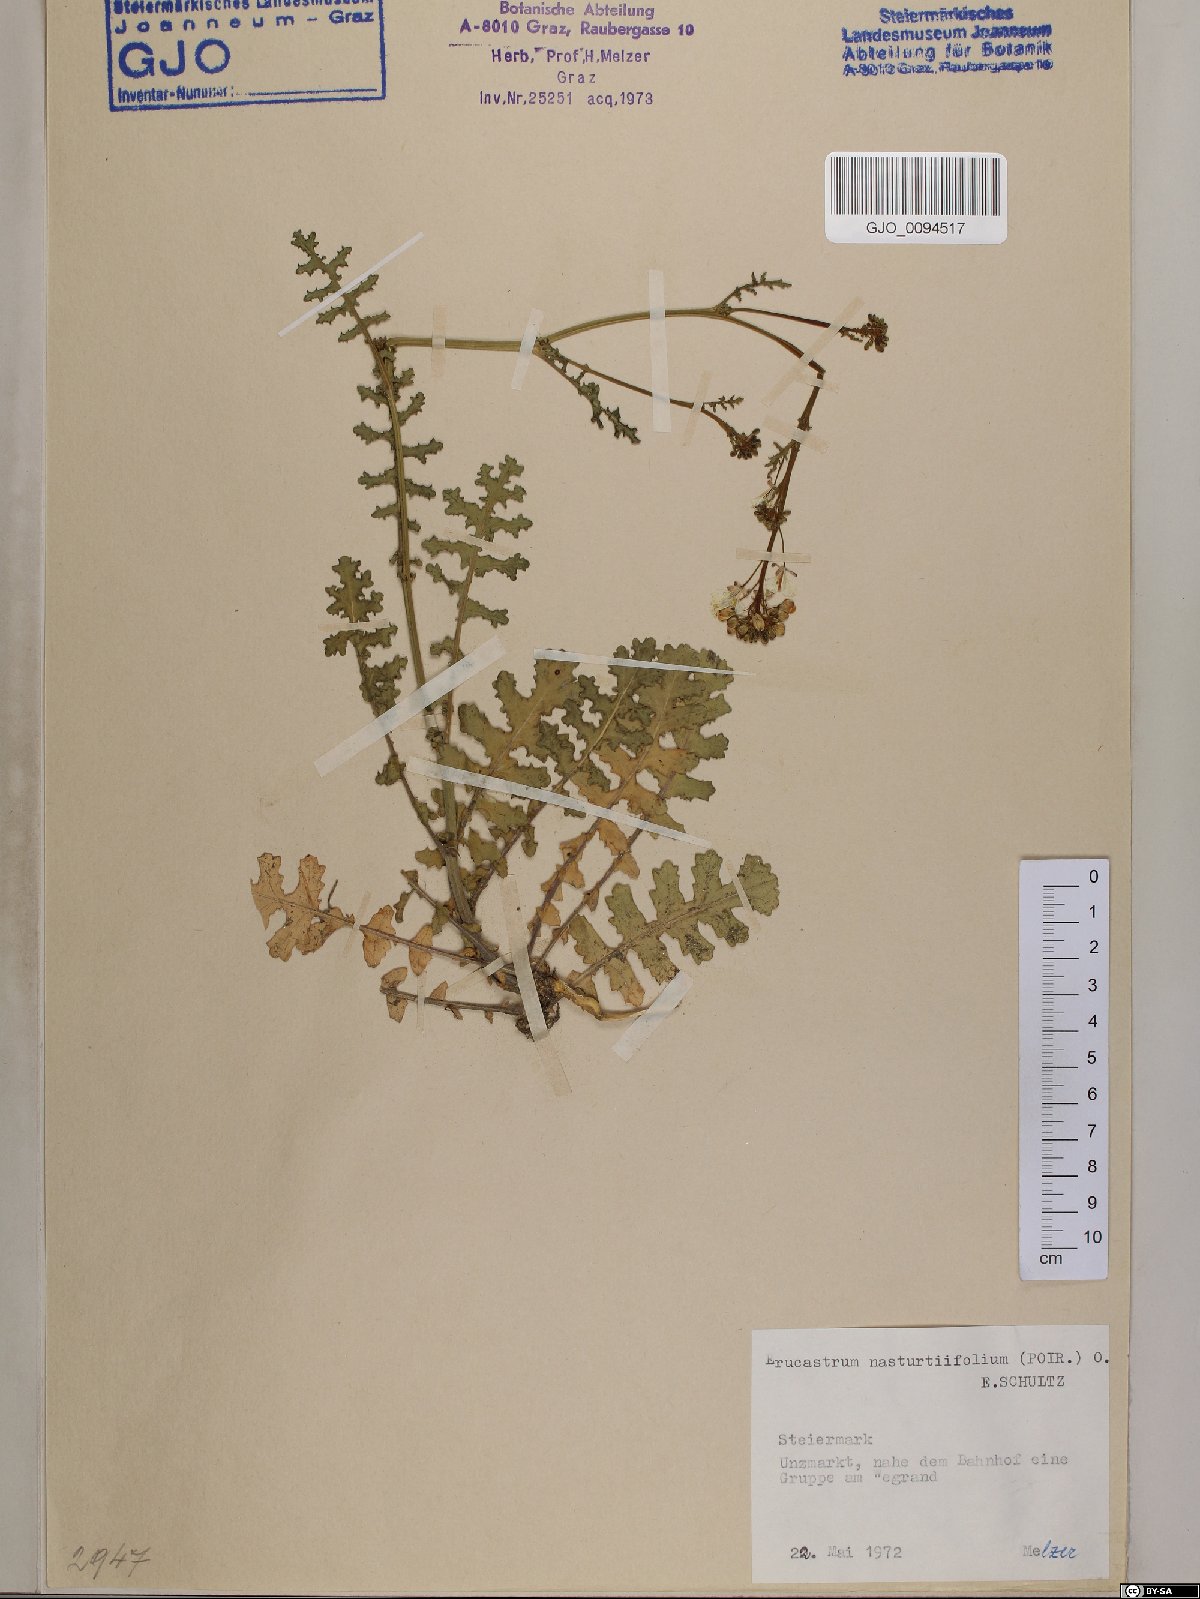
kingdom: Plantae
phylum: Tracheophyta
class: Magnoliopsida
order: Brassicales
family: Brassicaceae
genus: Erucastrum
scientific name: Erucastrum nasturtiifolium
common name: Watercress-leaf rocket
